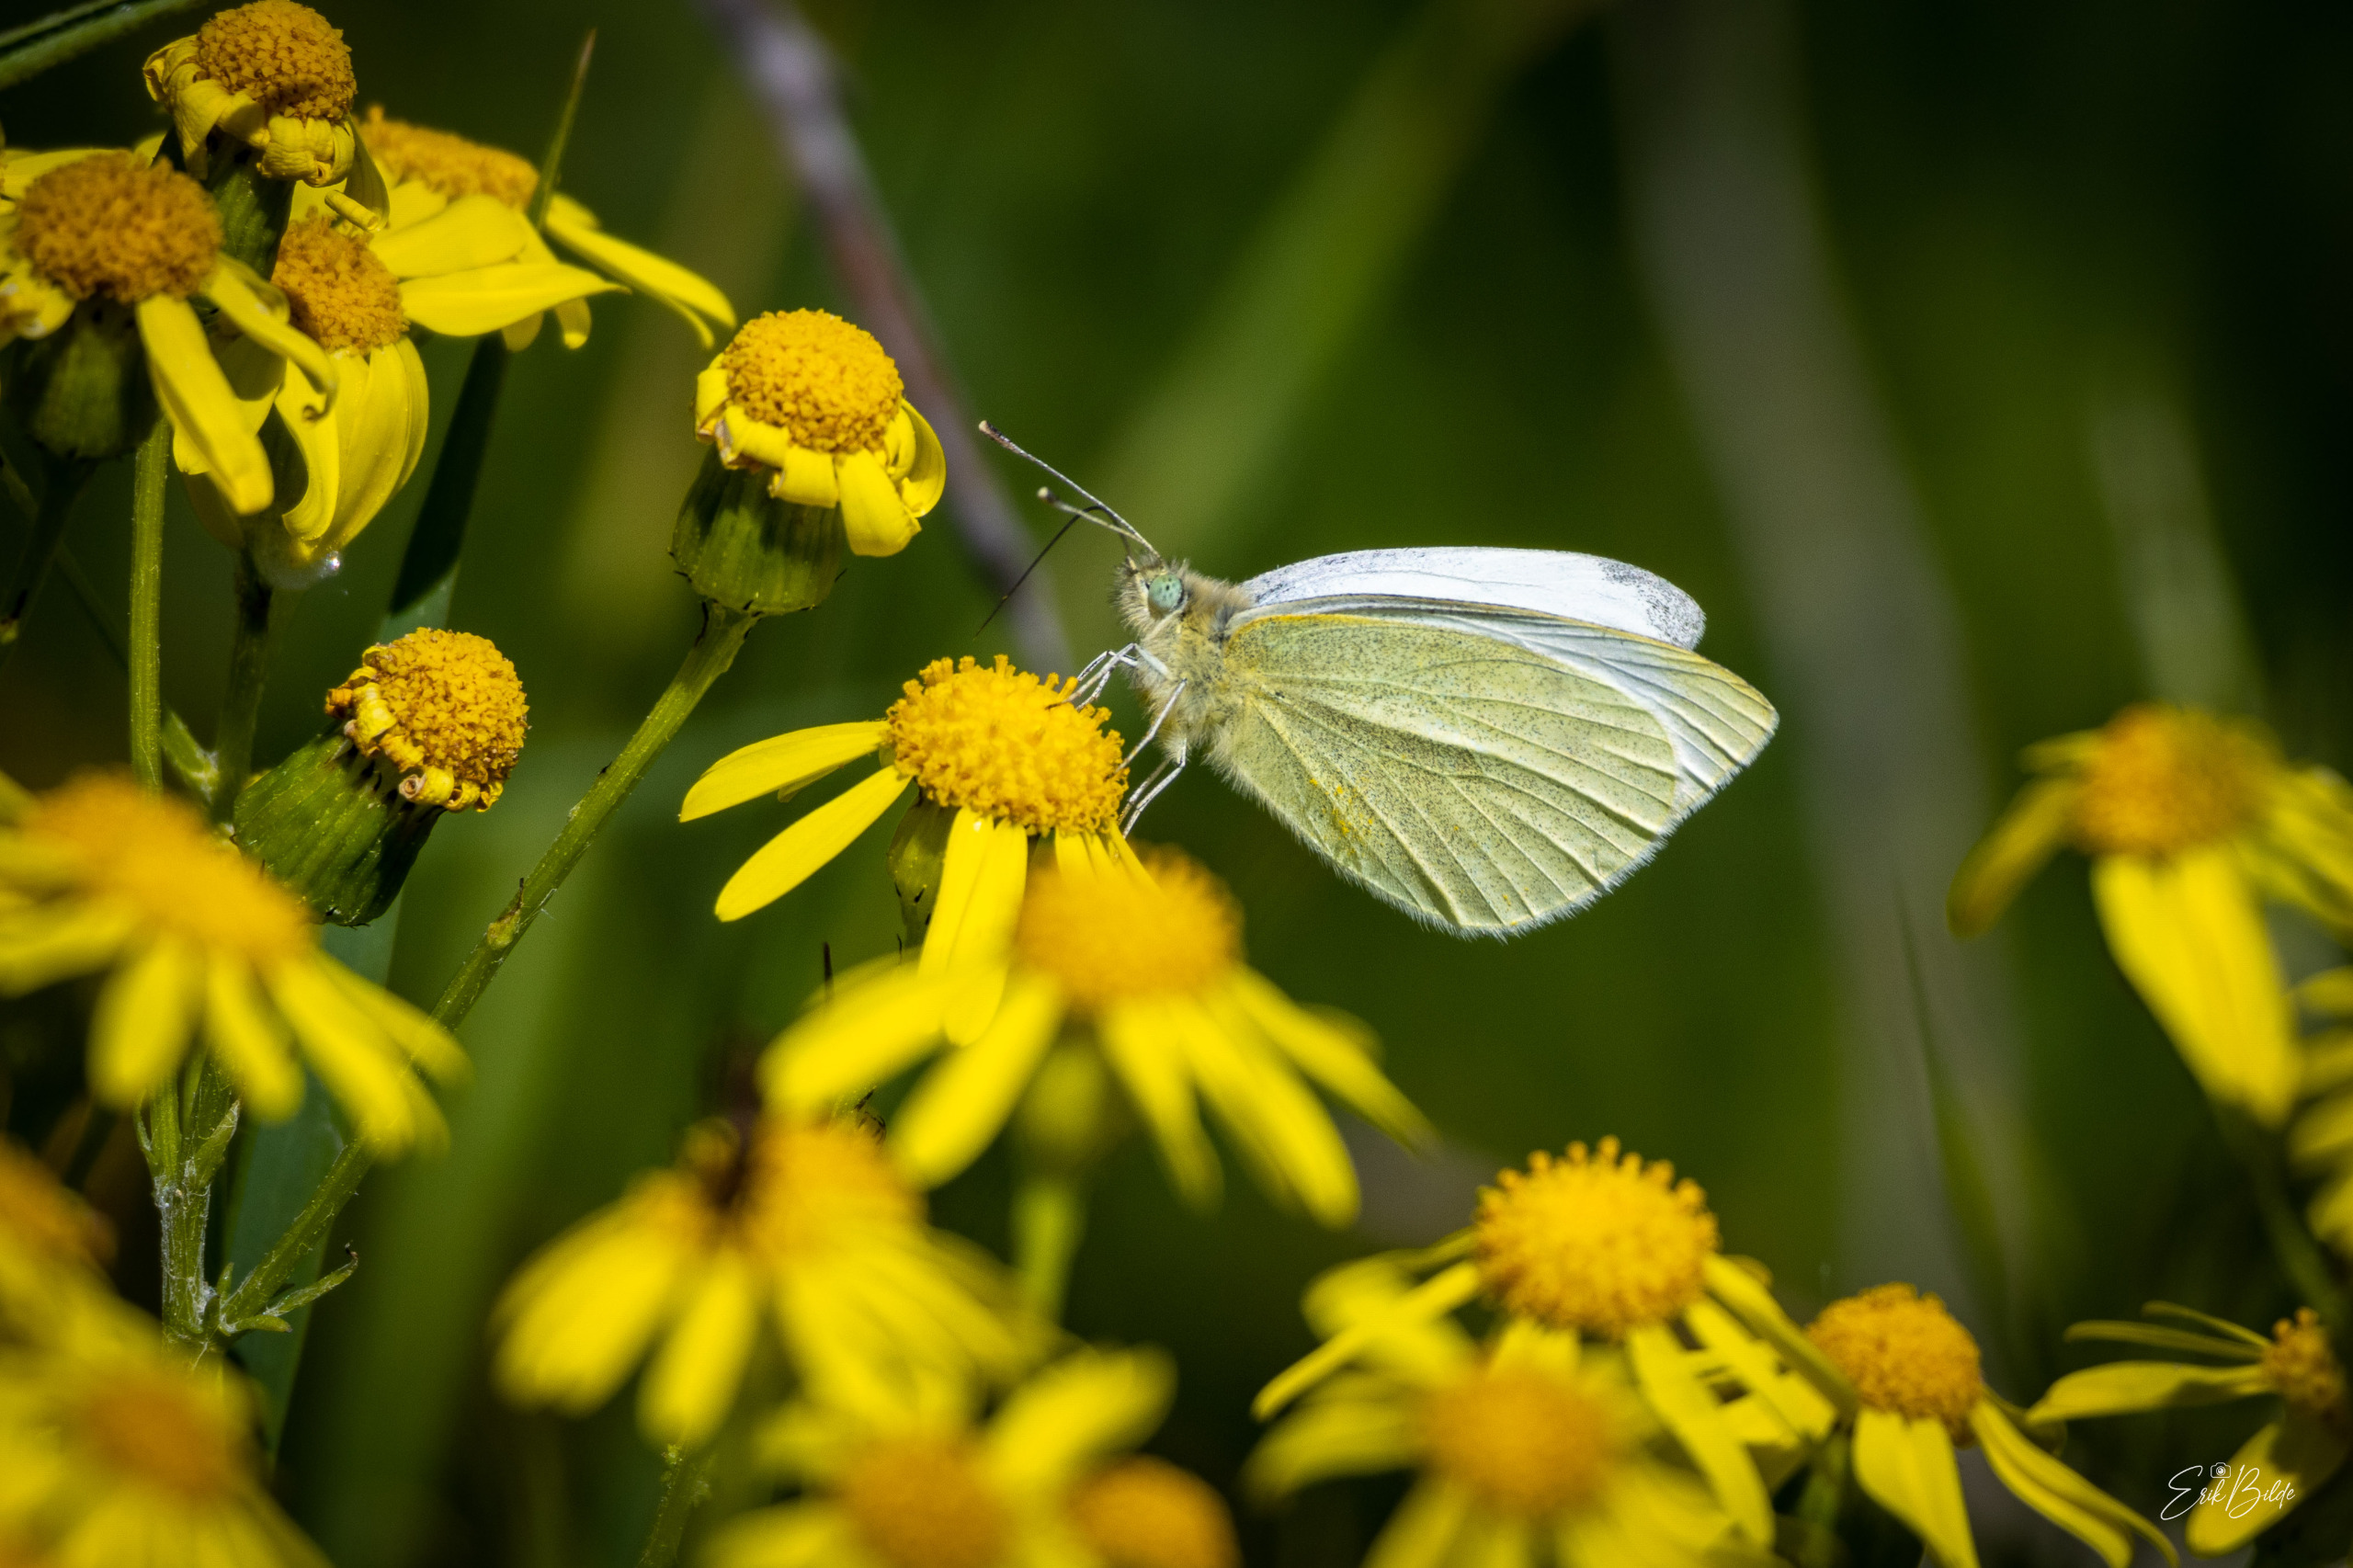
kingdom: Animalia
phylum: Arthropoda
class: Insecta
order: Lepidoptera
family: Pieridae
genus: Pieris
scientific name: Pieris rapae
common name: Lille kålsommerfugl
